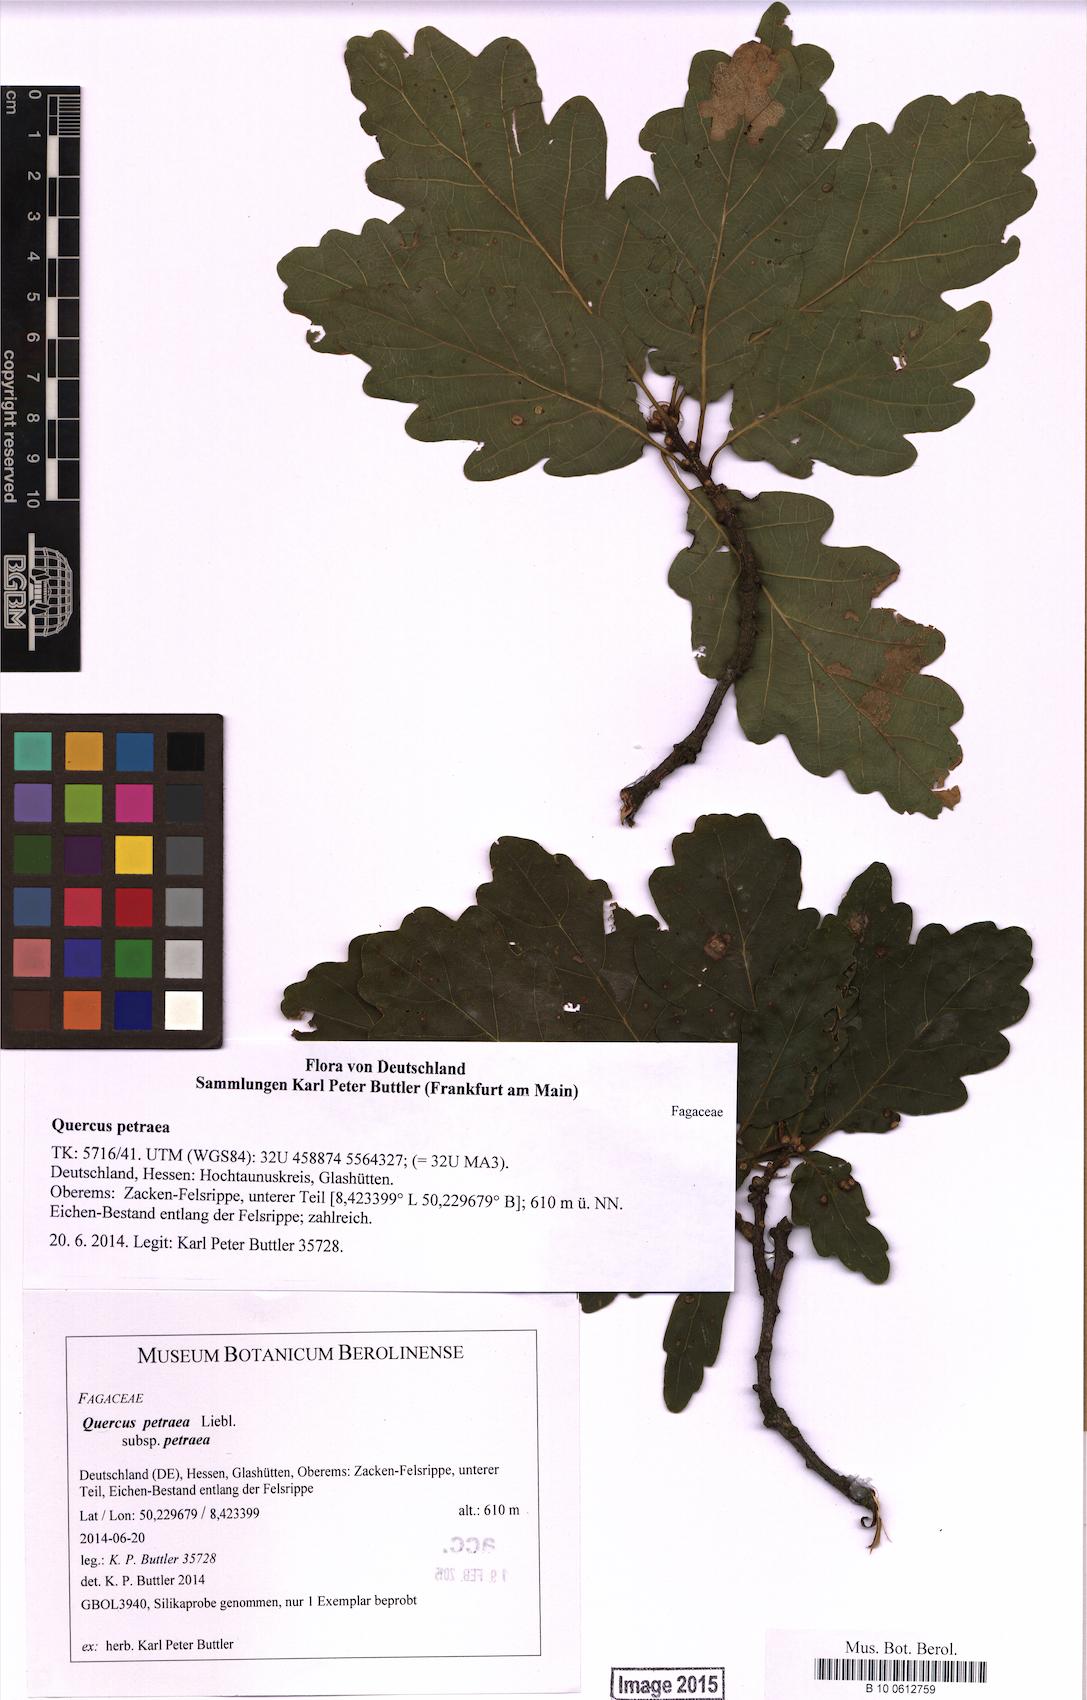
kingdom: Plantae
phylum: Tracheophyta
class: Magnoliopsida
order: Fagales
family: Fagaceae
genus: Quercus
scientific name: Quercus petraea
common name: Sessile oak
